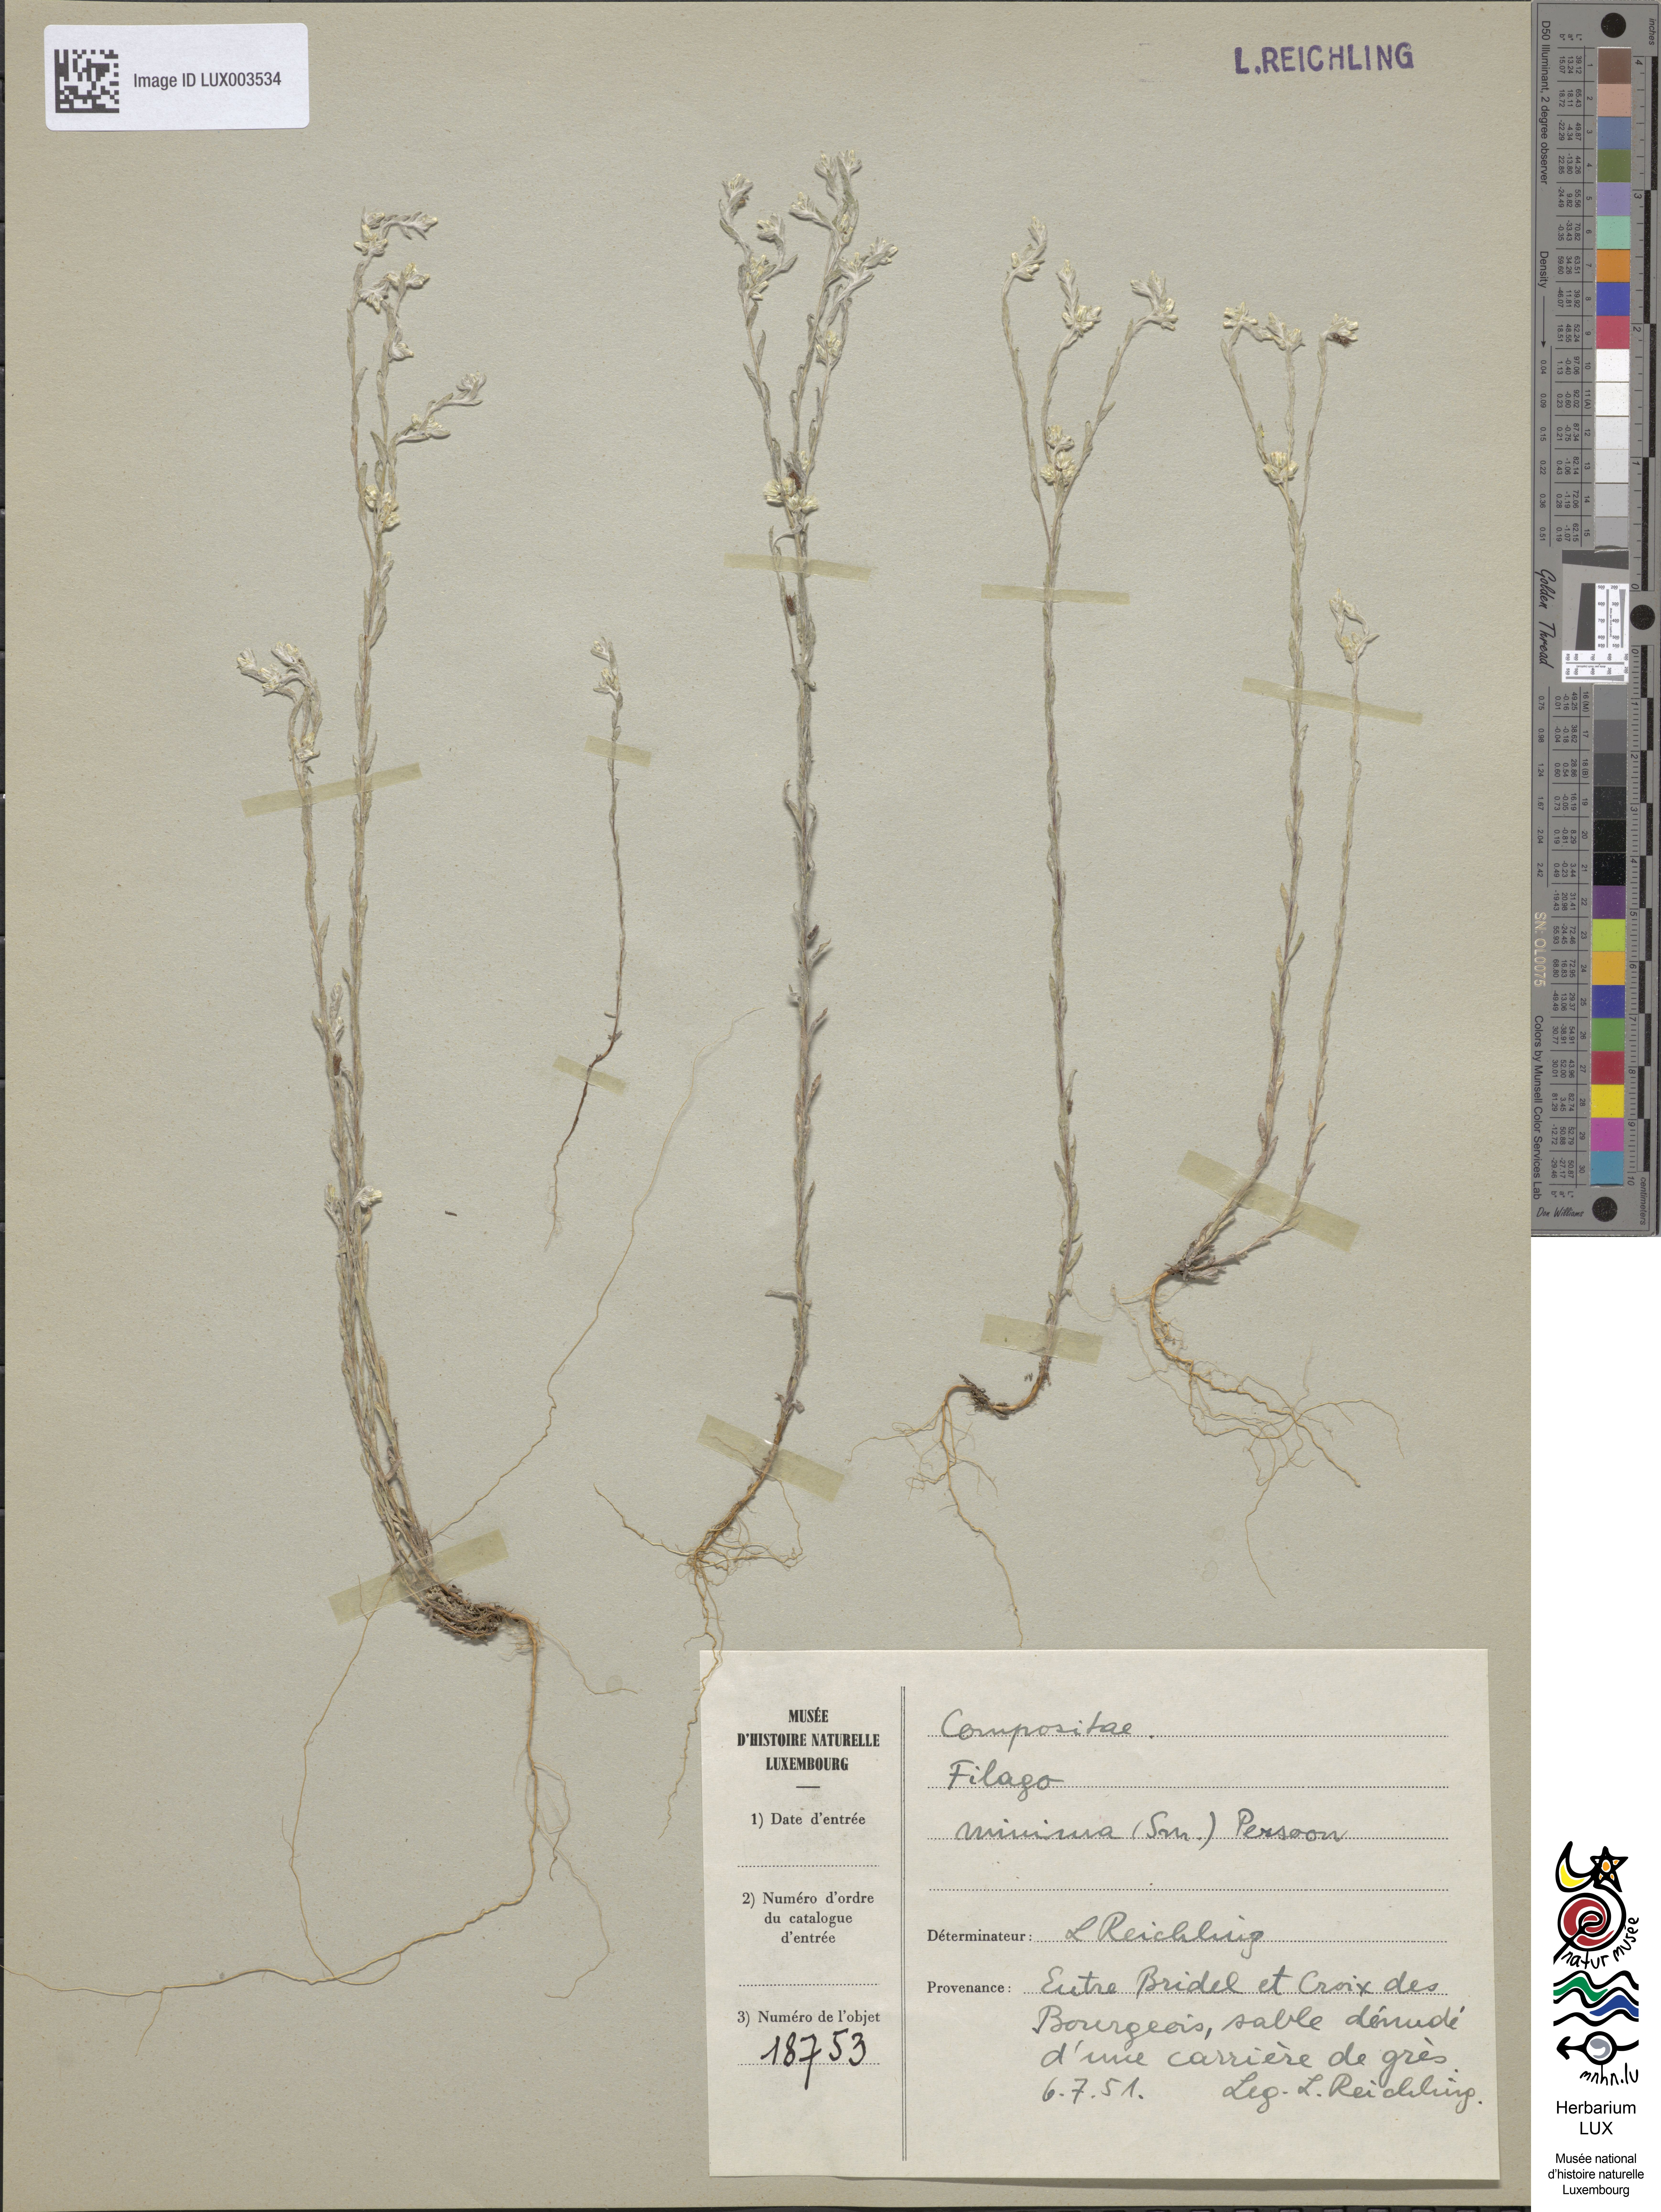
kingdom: Plantae
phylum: Tracheophyta
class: Magnoliopsida
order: Asterales
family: Asteraceae
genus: Logfia
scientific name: Logfia minima
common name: Little cottonrose
